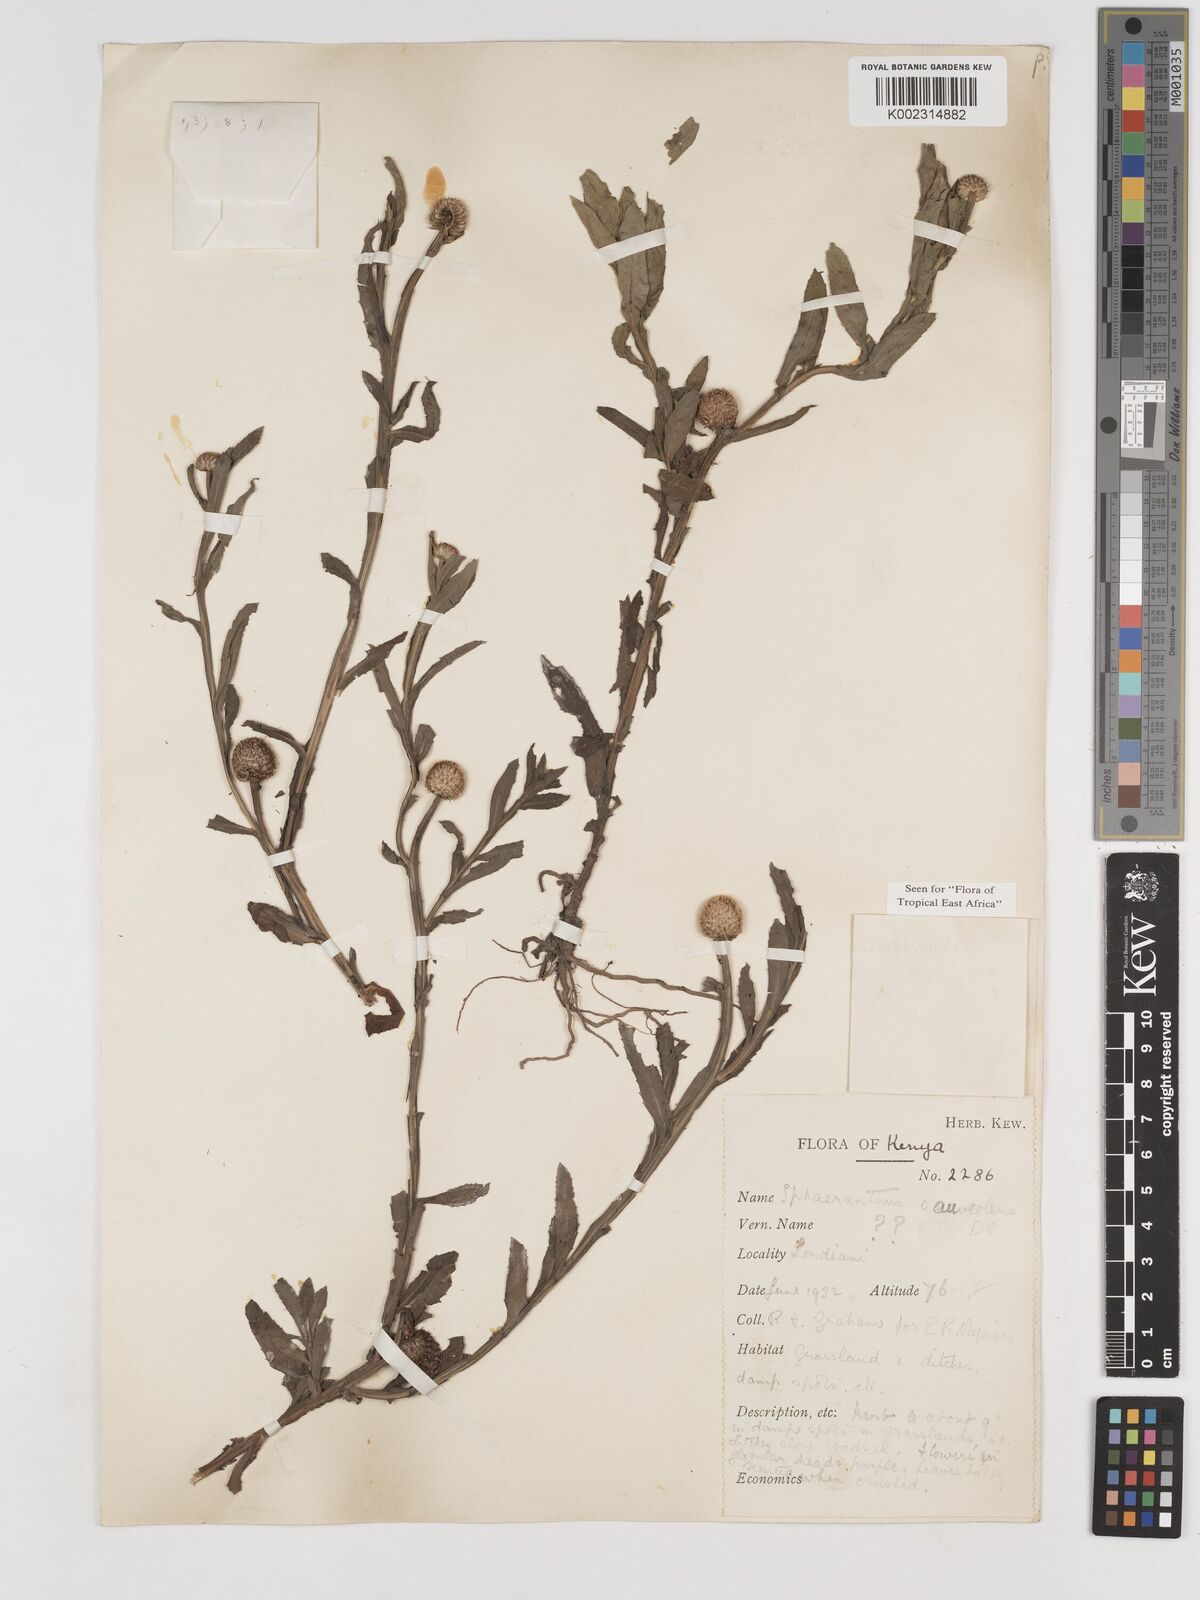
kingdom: Plantae
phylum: Tracheophyta
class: Magnoliopsida
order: Asterales
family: Asteraceae
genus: Sphaeranthus
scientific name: Sphaeranthus suaveolens
